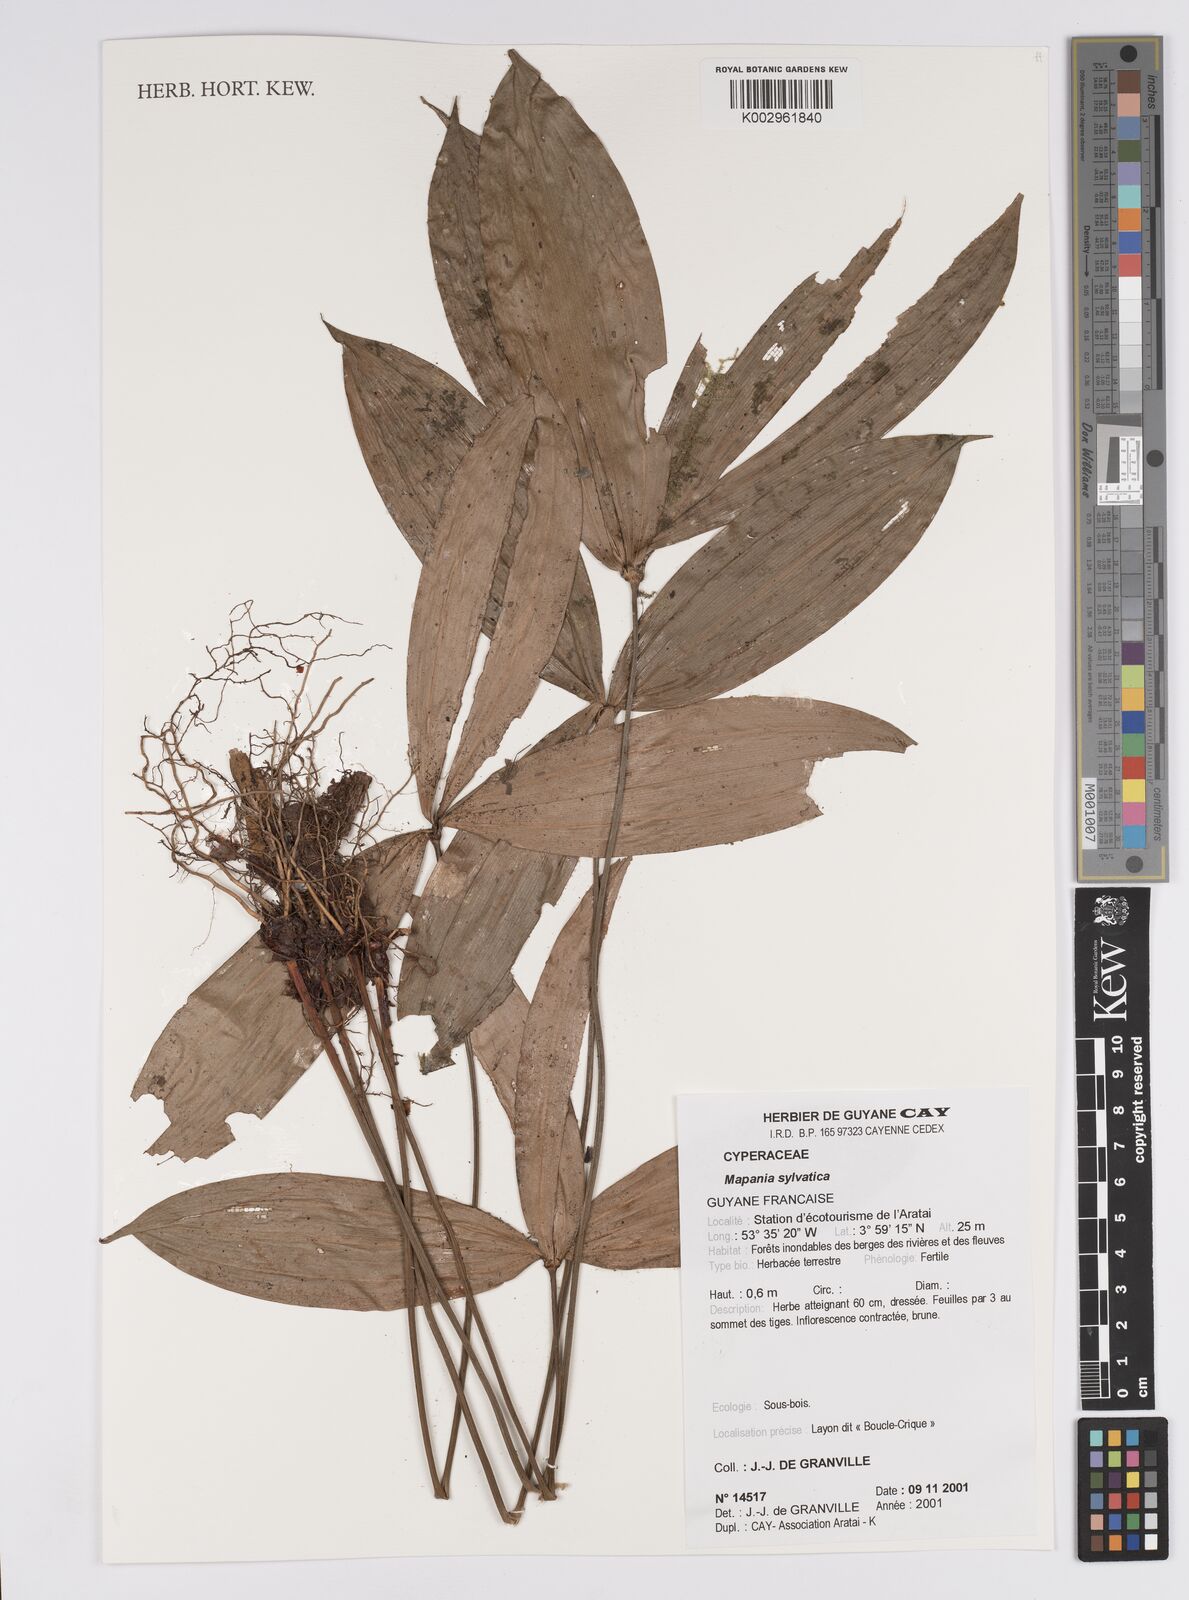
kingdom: Plantae
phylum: Tracheophyta
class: Liliopsida
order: Poales
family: Cyperaceae
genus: Mapania
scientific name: Mapania sylvatica
